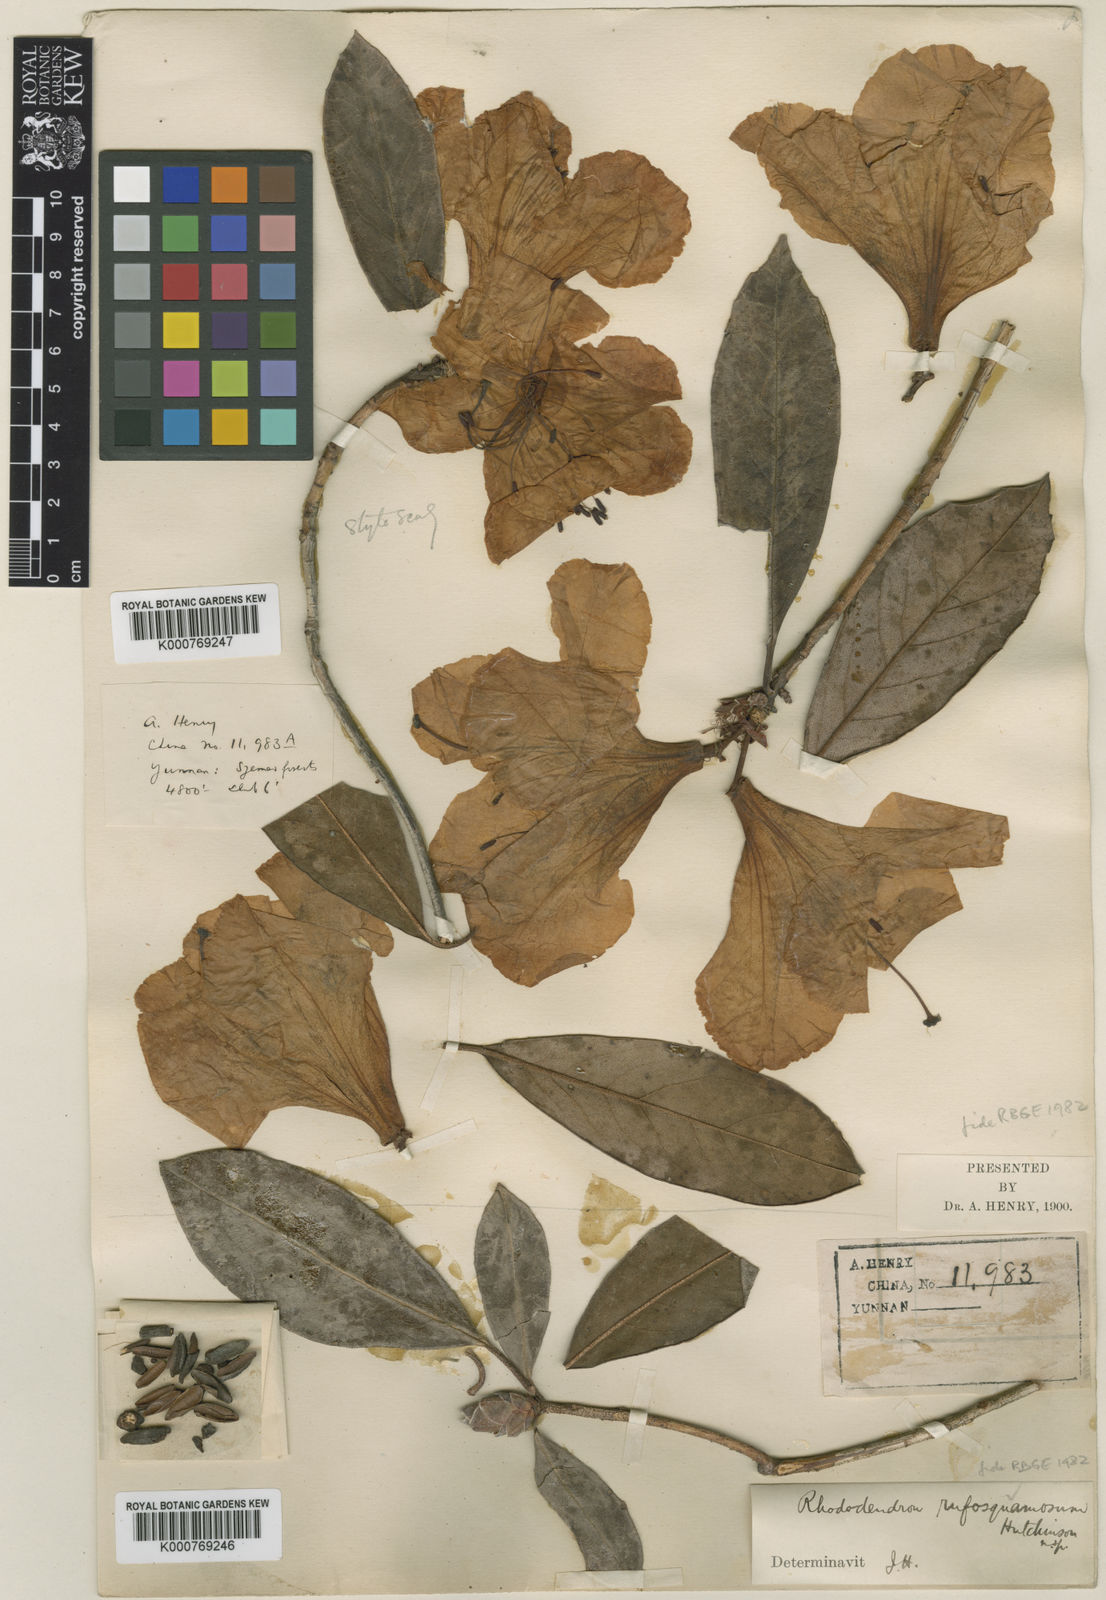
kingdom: Plantae
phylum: Tracheophyta
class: Magnoliopsida
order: Ericales
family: Ericaceae
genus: Rhododendron
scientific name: Rhododendron pachypodum
